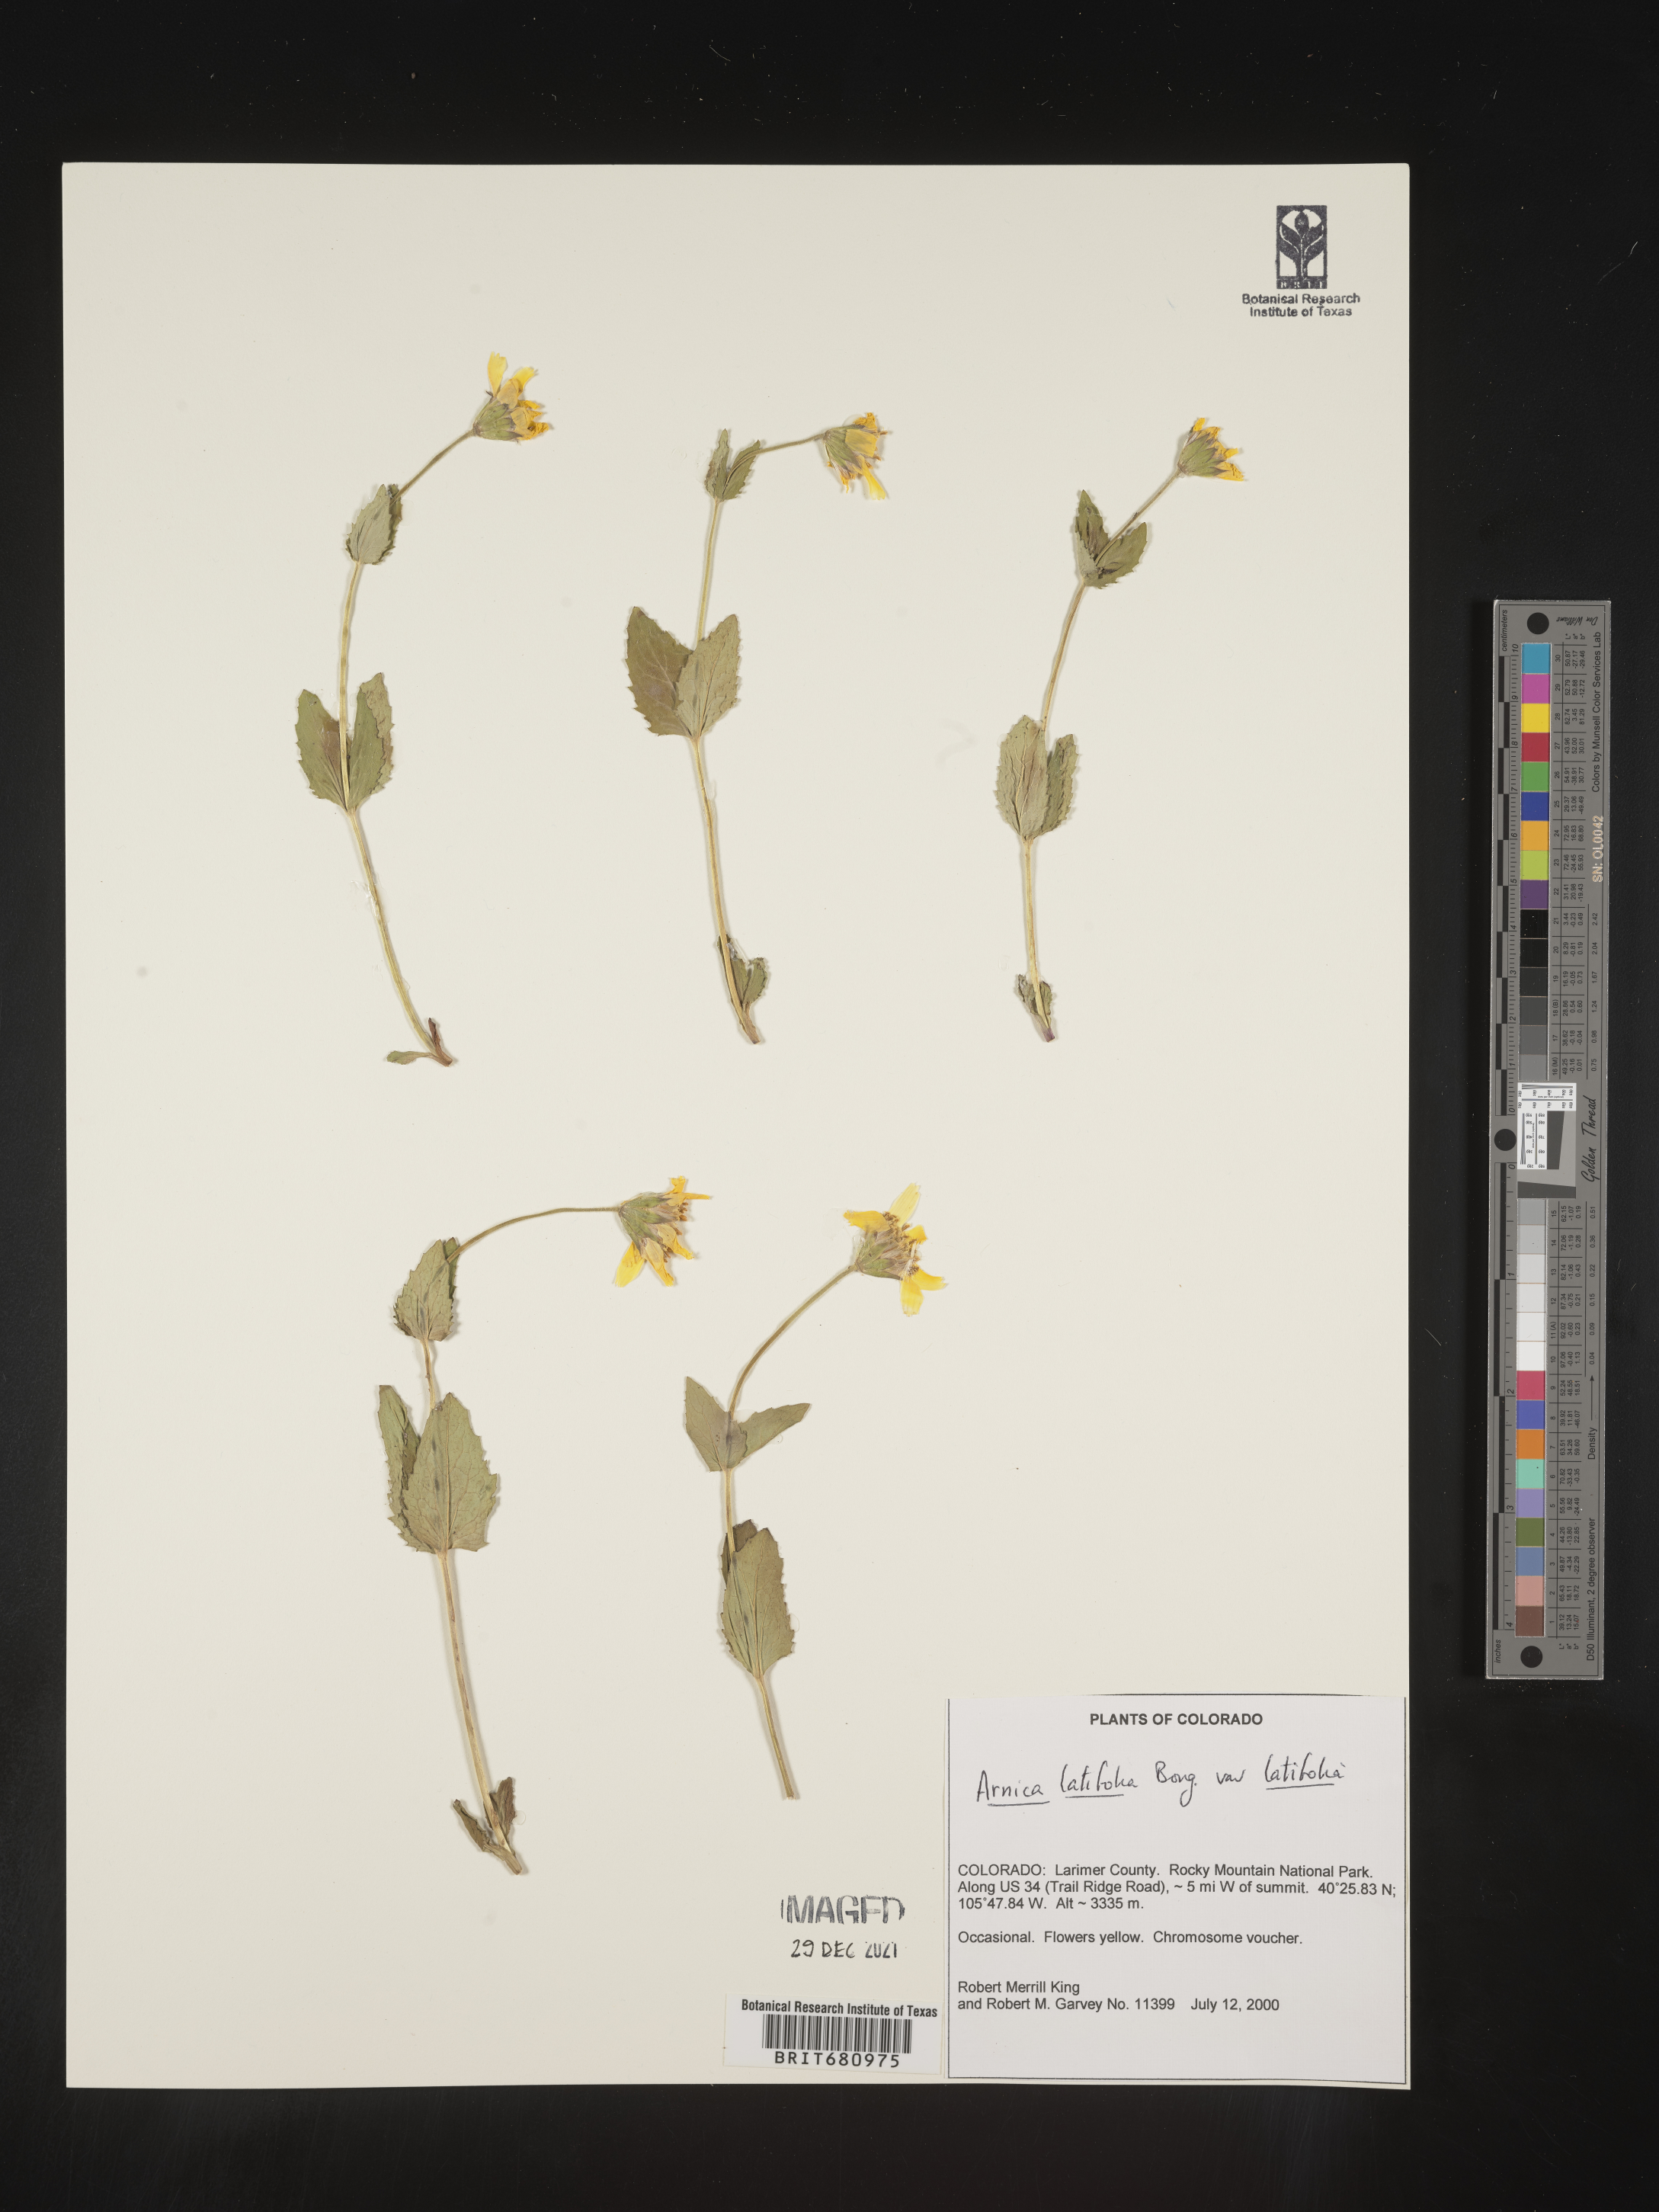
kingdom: Plantae
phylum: Tracheophyta
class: Magnoliopsida
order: Asterales
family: Asteraceae
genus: Arnica
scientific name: Arnica latifolia
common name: Arnica
